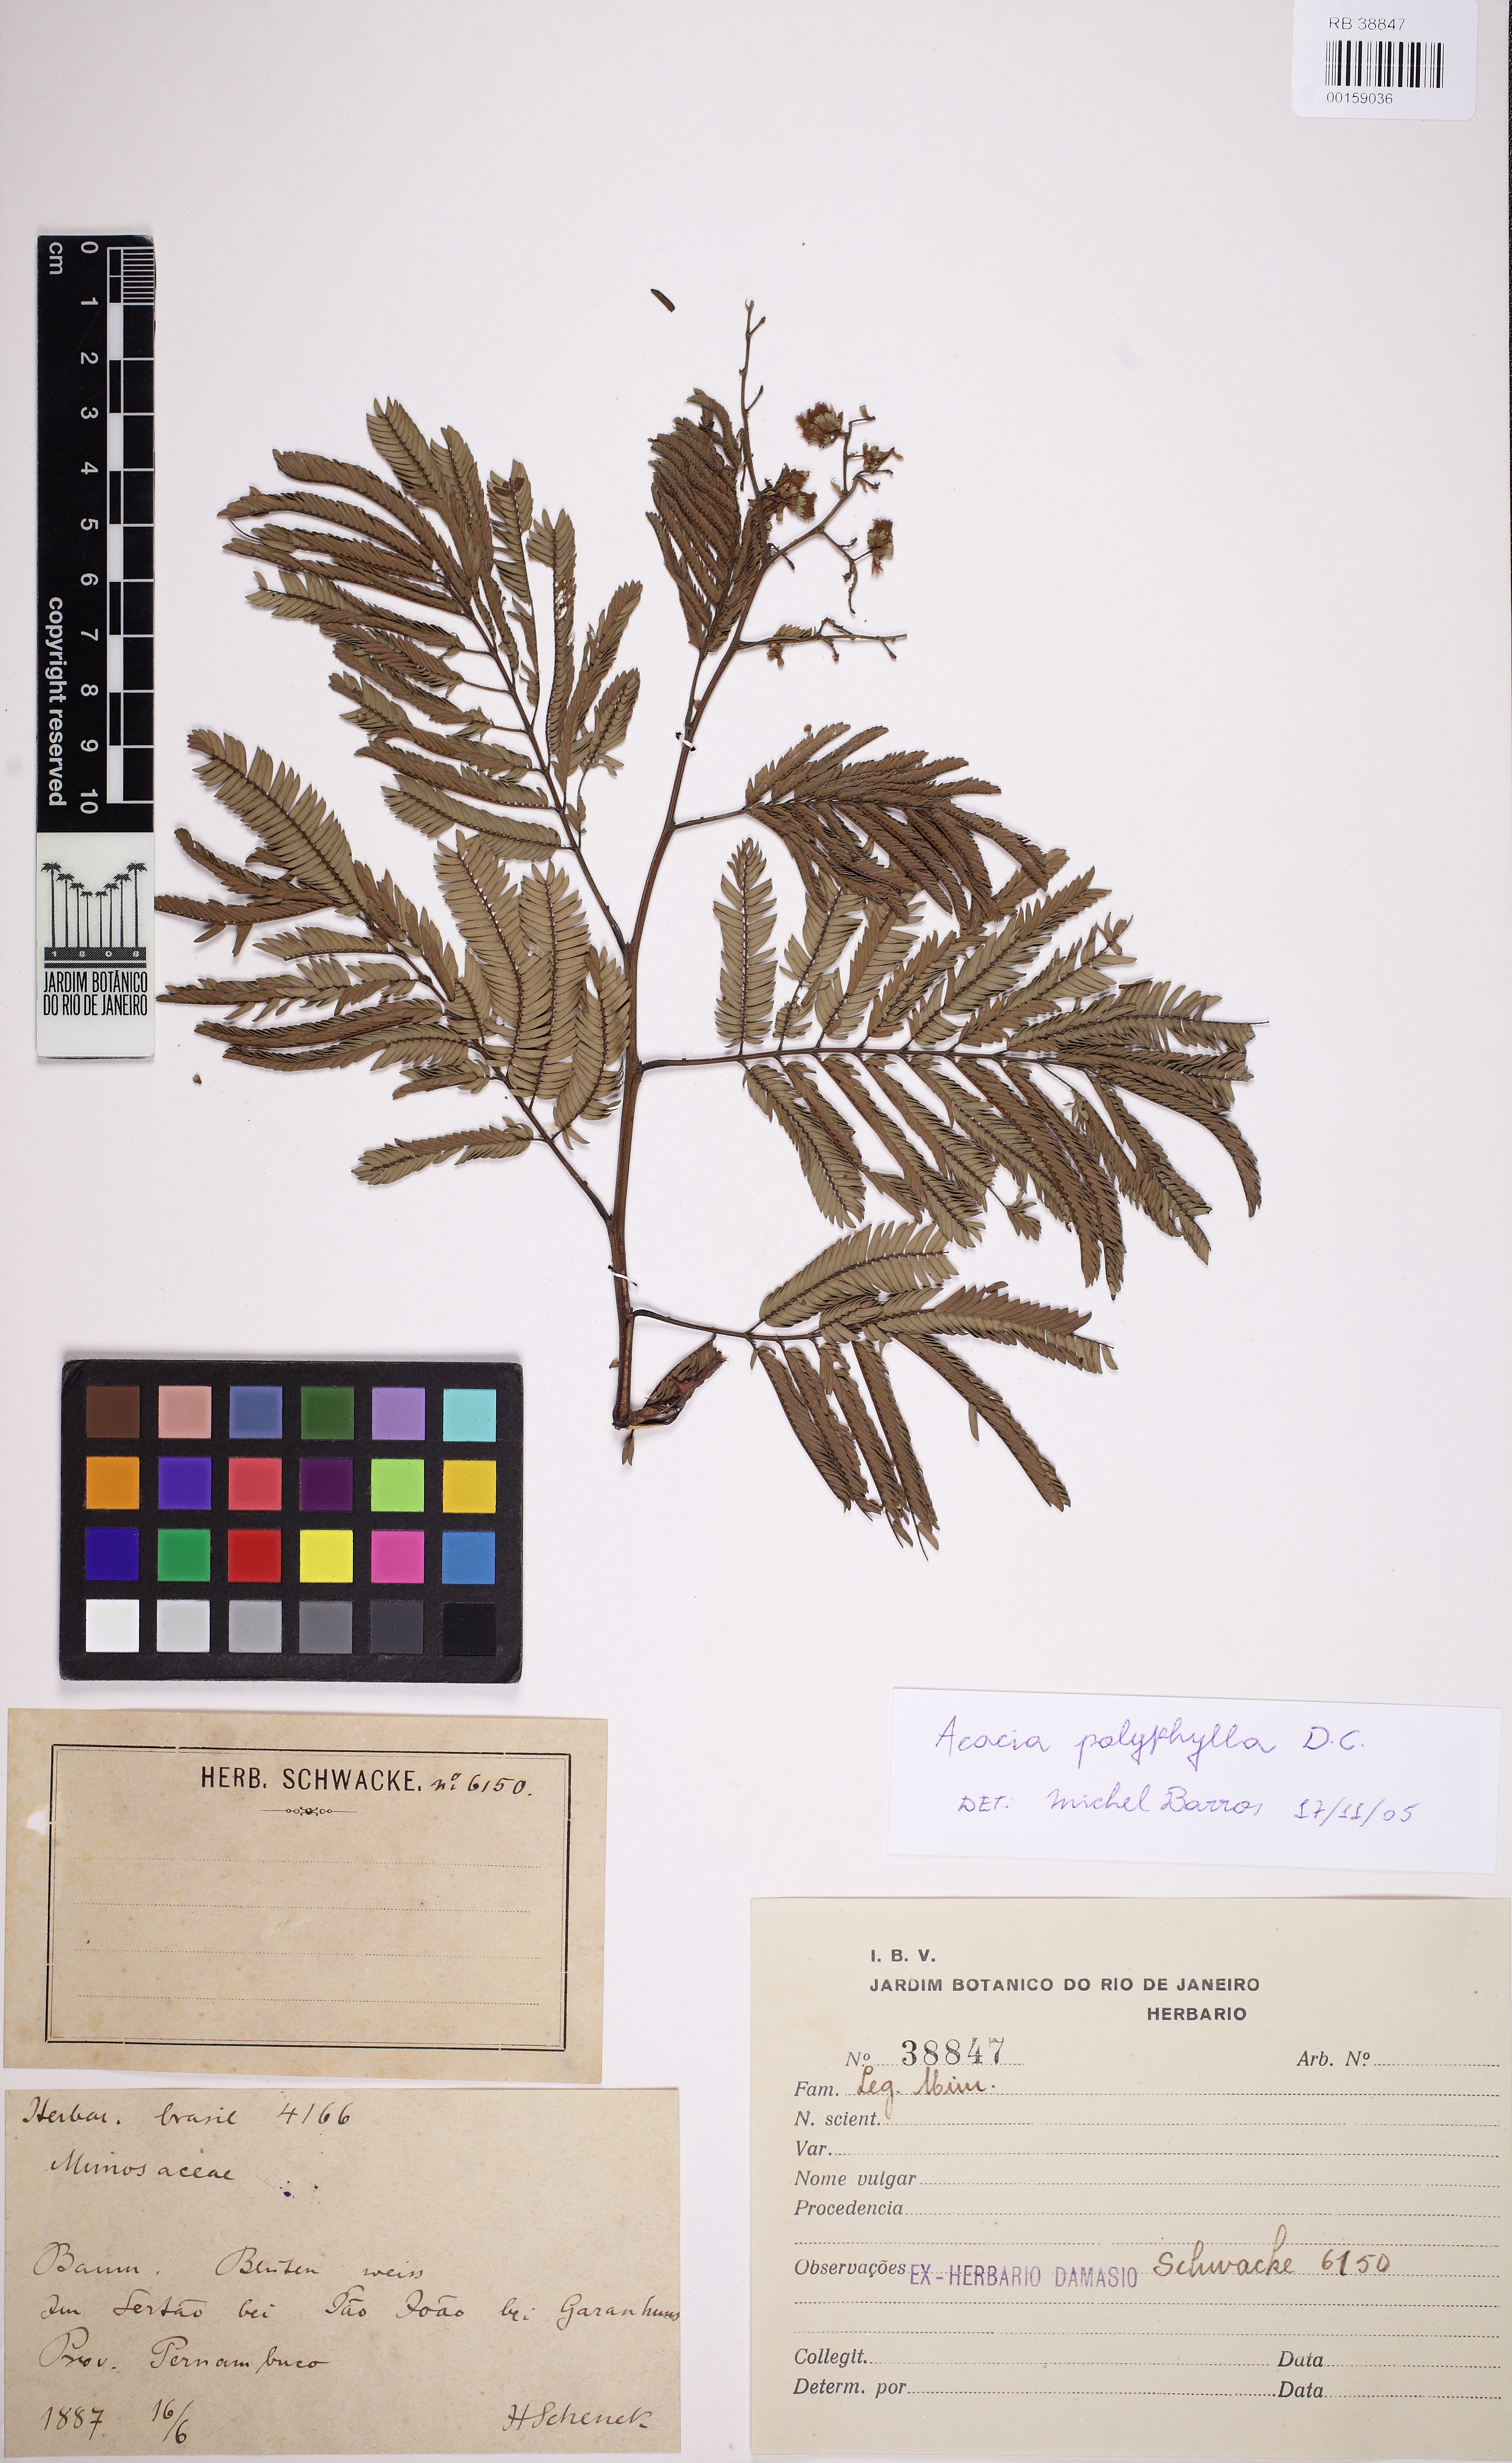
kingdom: Plantae
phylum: Tracheophyta
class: Magnoliopsida
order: Fabales
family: Fabaceae
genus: Senegalia
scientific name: Senegalia polyphylla
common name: White-tamarind
